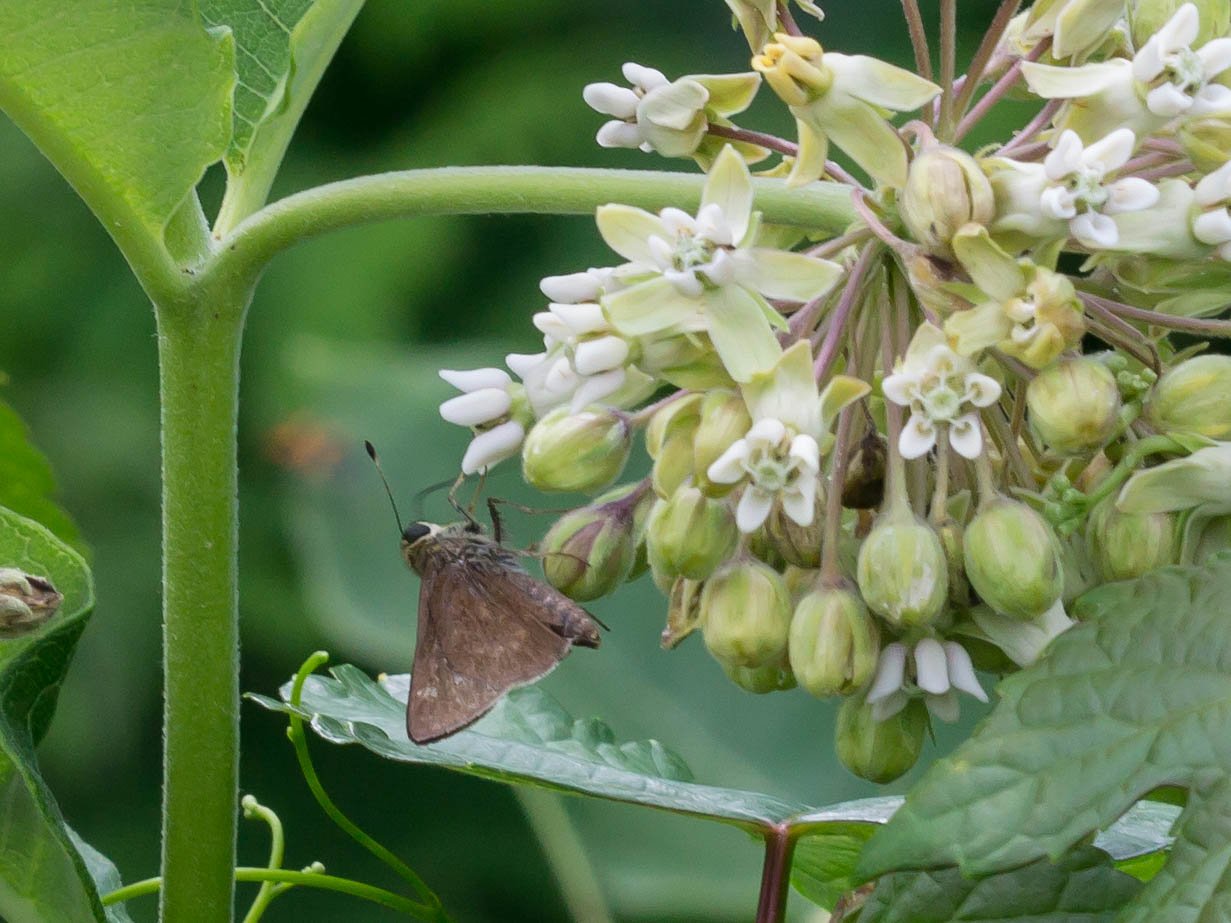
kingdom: Animalia
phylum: Arthropoda
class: Insecta
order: Lepidoptera
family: Hesperiidae
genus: Vernia
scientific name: Vernia verna
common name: Little Glassywing
